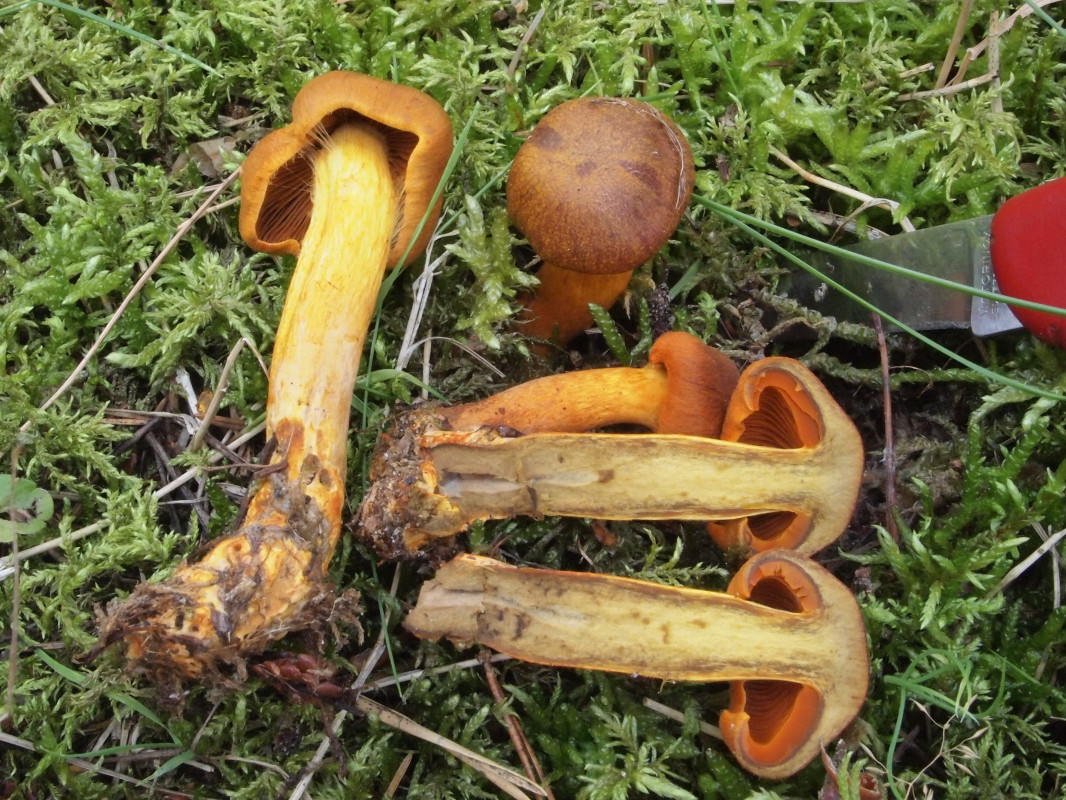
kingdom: Fungi
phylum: Basidiomycota
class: Agaricomycetes
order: Agaricales
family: Cortinariaceae
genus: Cortinarius
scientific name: Cortinarius malicorius
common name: grønkødet slørhat
